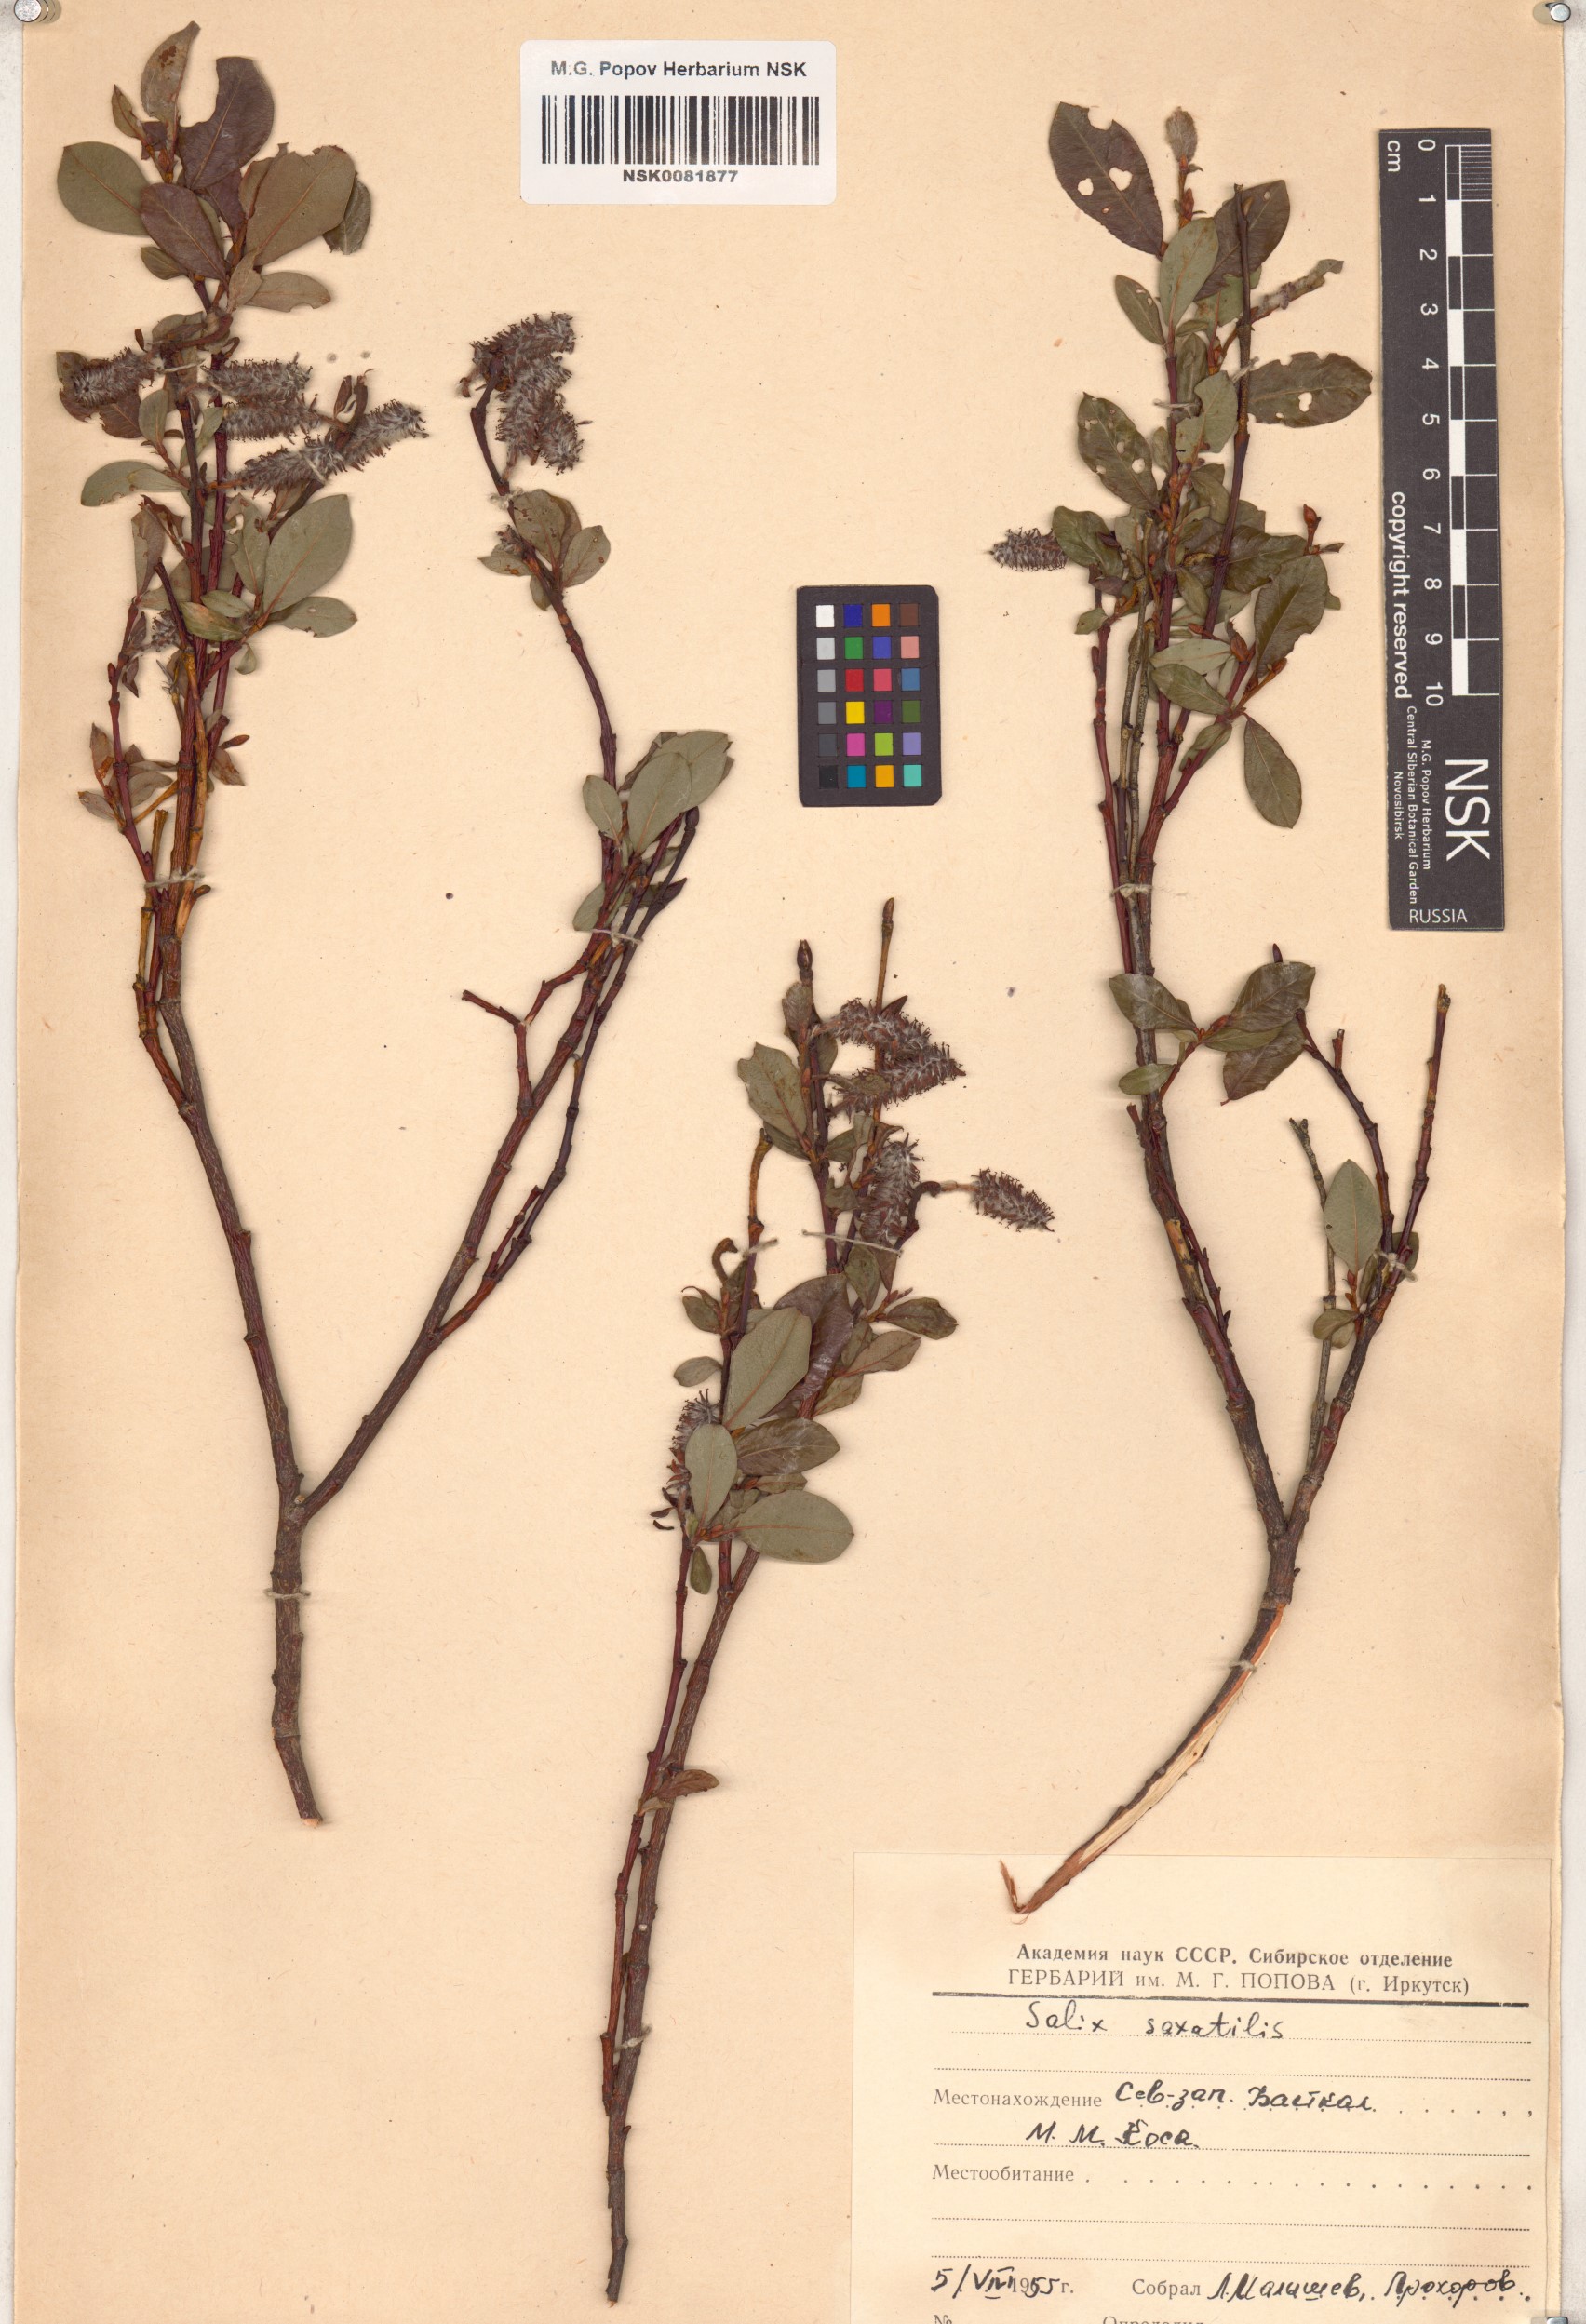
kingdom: Plantae
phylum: Tracheophyta
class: Magnoliopsida
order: Malpighiales
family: Salicaceae
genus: Salix
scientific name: Salix saxatilis
